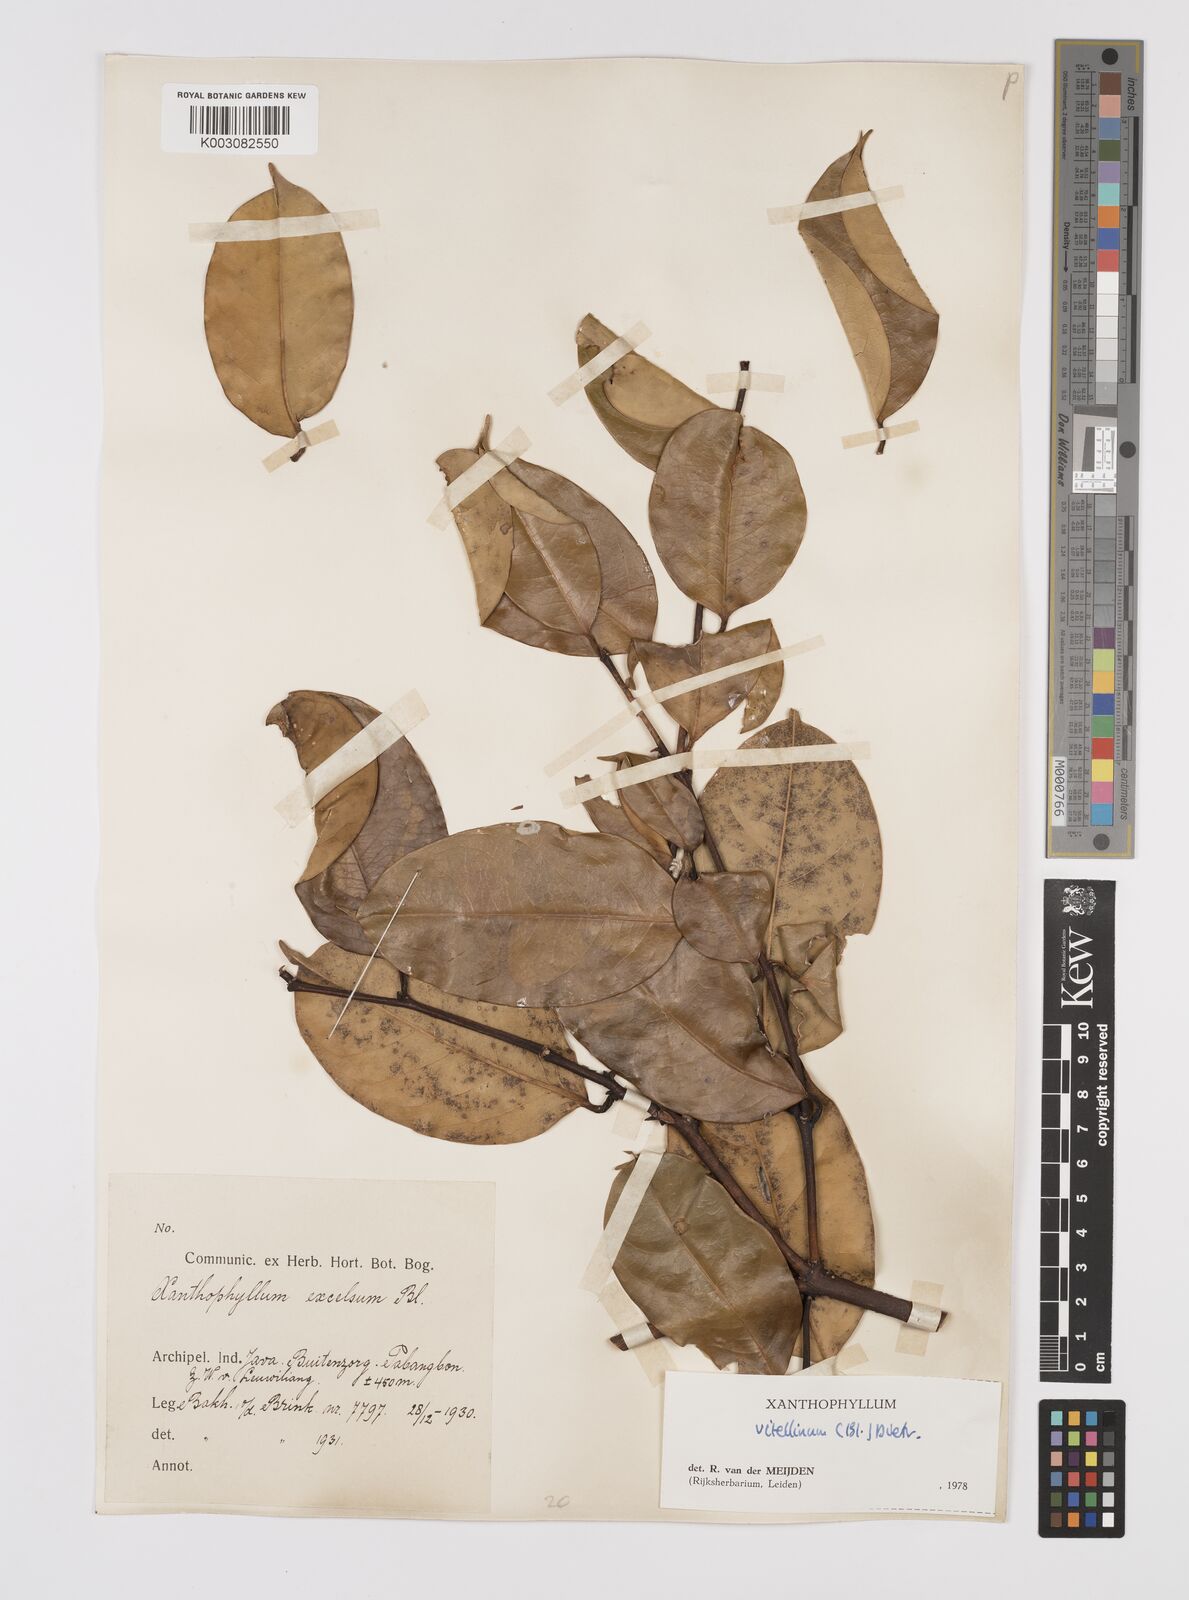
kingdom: Plantae
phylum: Tracheophyta
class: Magnoliopsida
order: Fabales
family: Polygalaceae
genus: Xanthophyllum
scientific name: Xanthophyllum vitellinum
